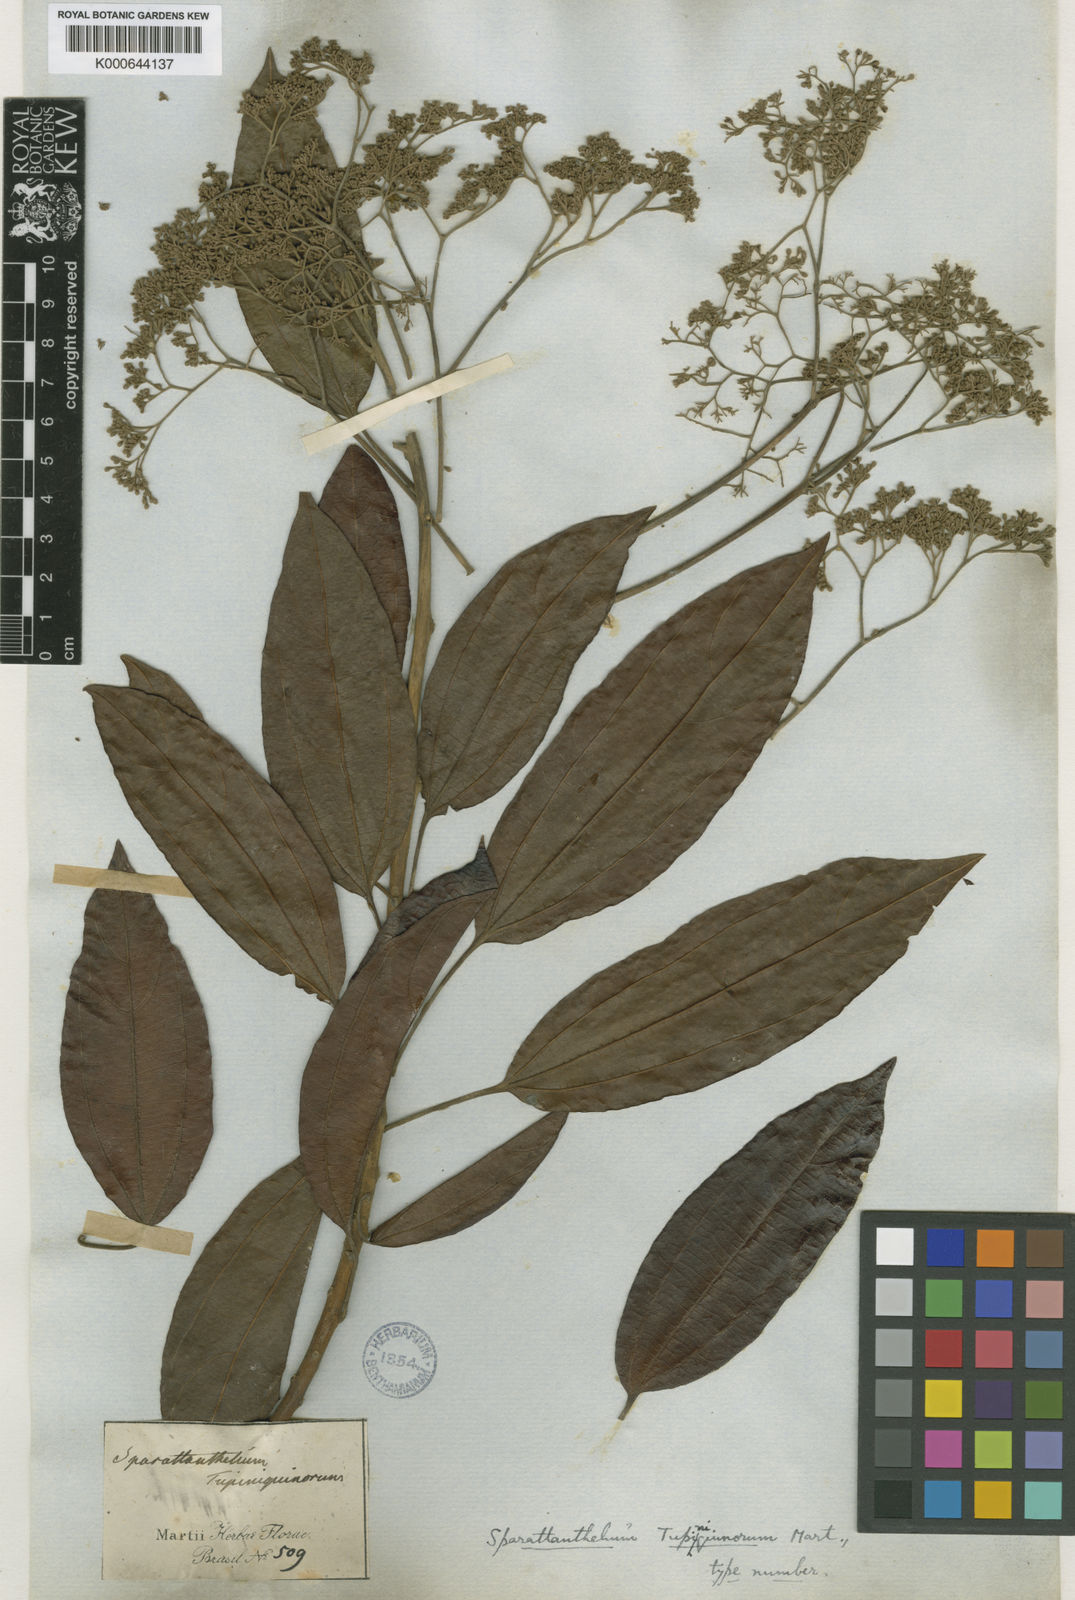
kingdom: Plantae
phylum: Tracheophyta
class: Magnoliopsida
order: Laurales
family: Hernandiaceae
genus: Sparattanthelium
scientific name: Sparattanthelium tupiniquinorum
